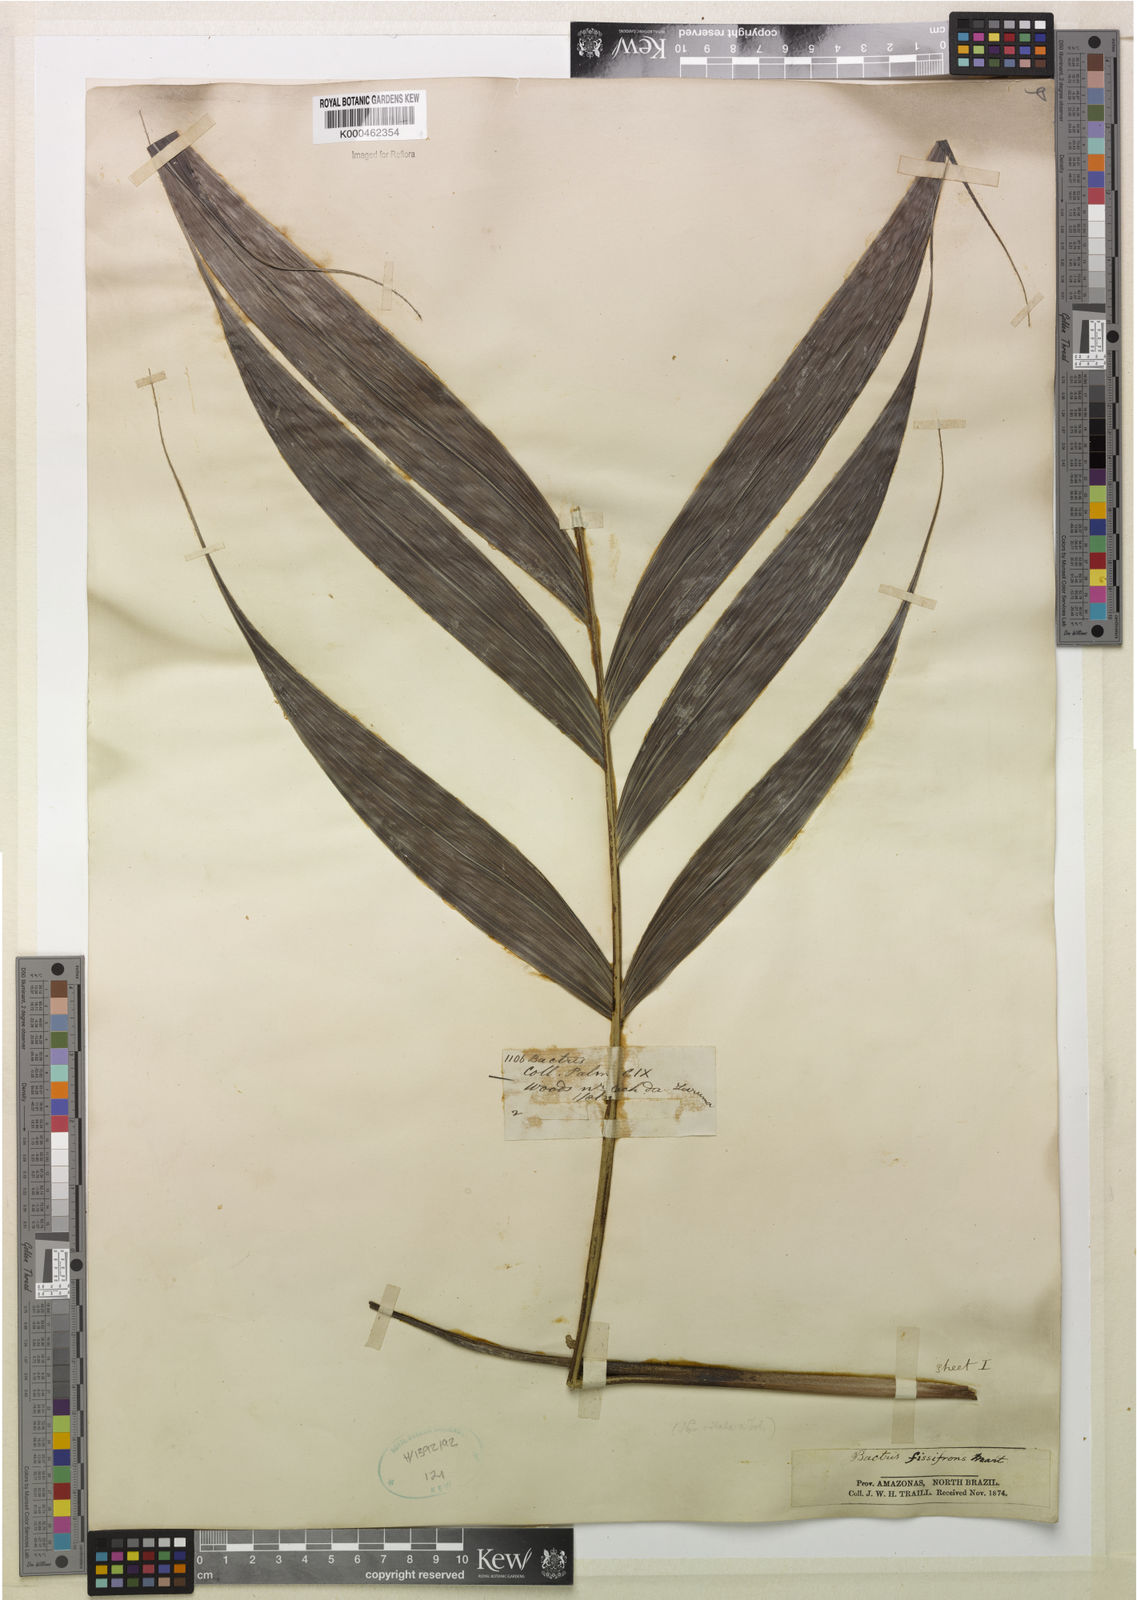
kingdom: Plantae
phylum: Tracheophyta
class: Liliopsida
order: Arecales
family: Arecaceae
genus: Bactris
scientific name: Bactris fissifrons
